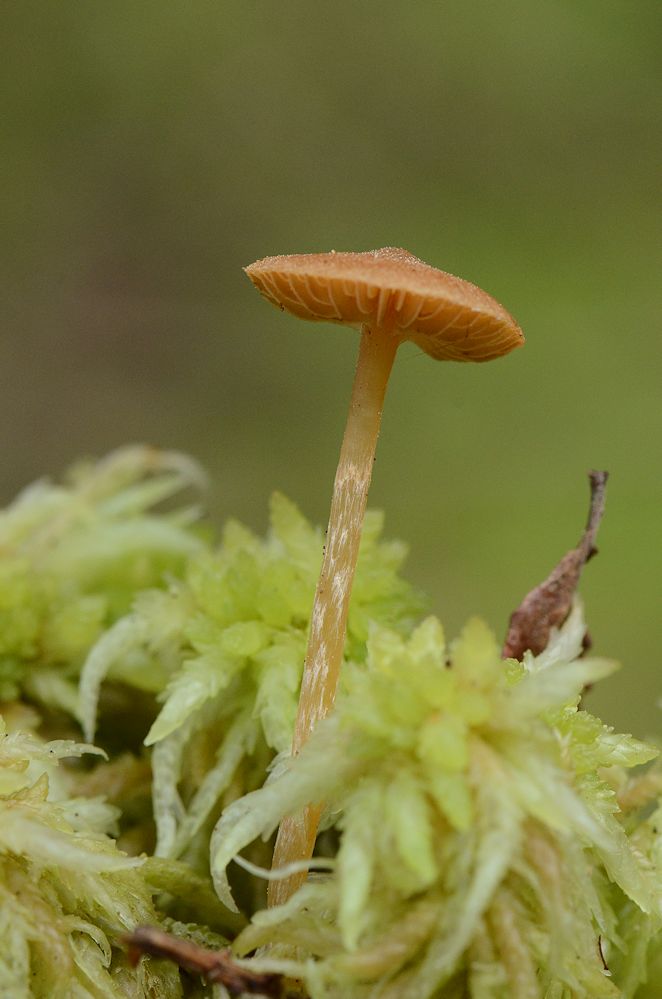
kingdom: Fungi
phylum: Basidiomycota
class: Agaricomycetes
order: Agaricales
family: Hymenogastraceae
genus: Galerina
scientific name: Galerina paludosa
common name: mose-hjelmhat
